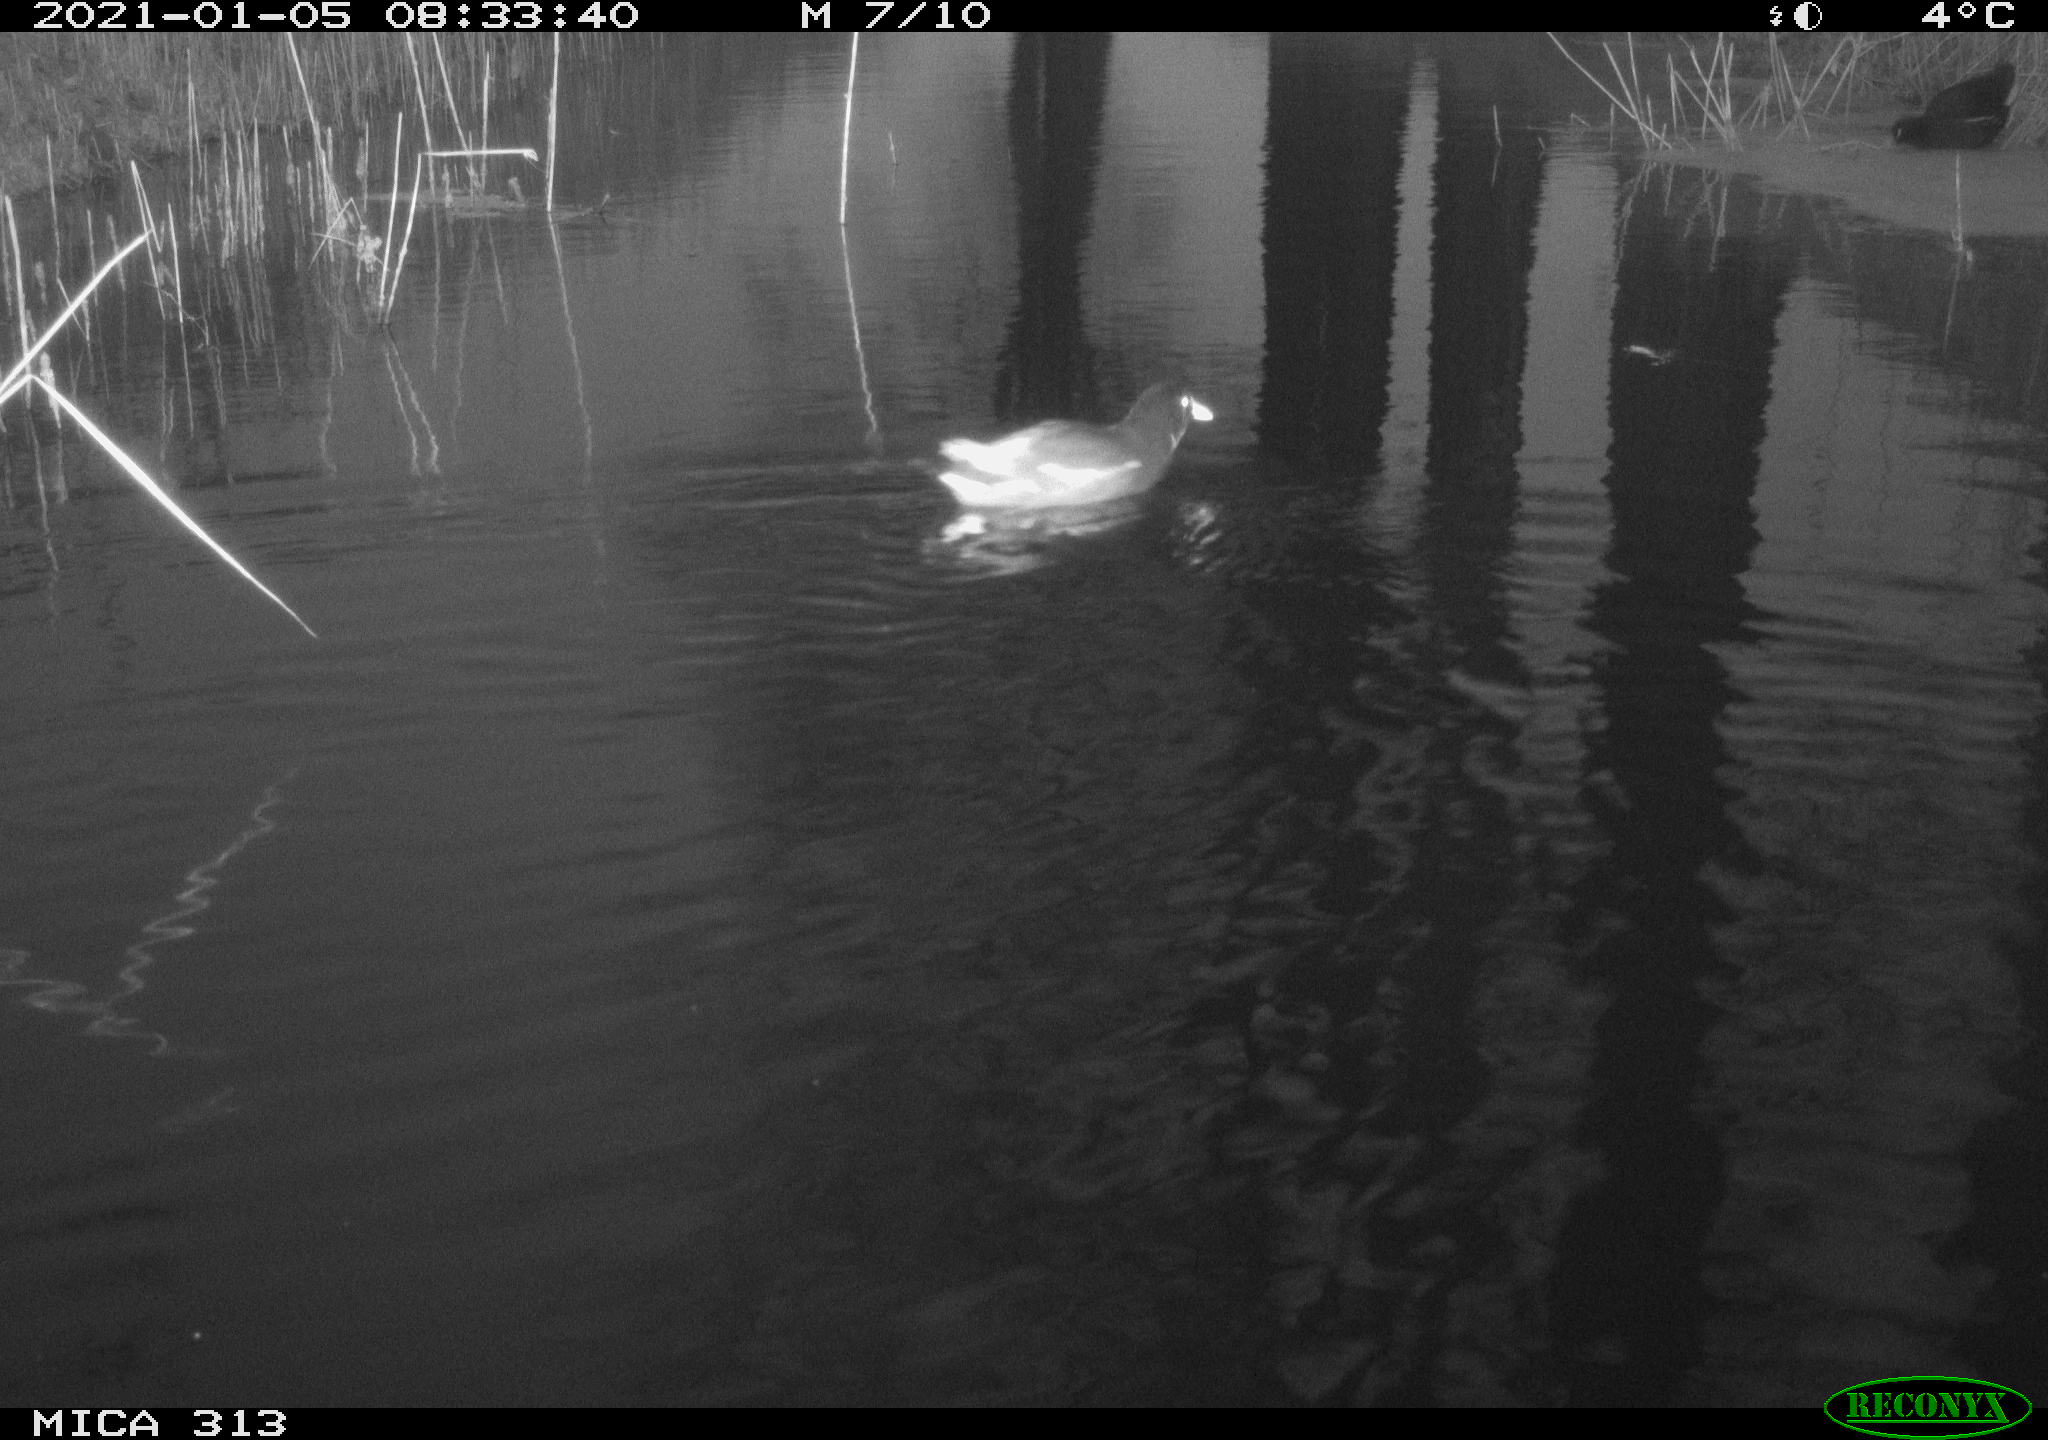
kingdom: Animalia
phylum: Chordata
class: Aves
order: Gruiformes
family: Rallidae
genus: Gallinula
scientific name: Gallinula chloropus
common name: Common moorhen
